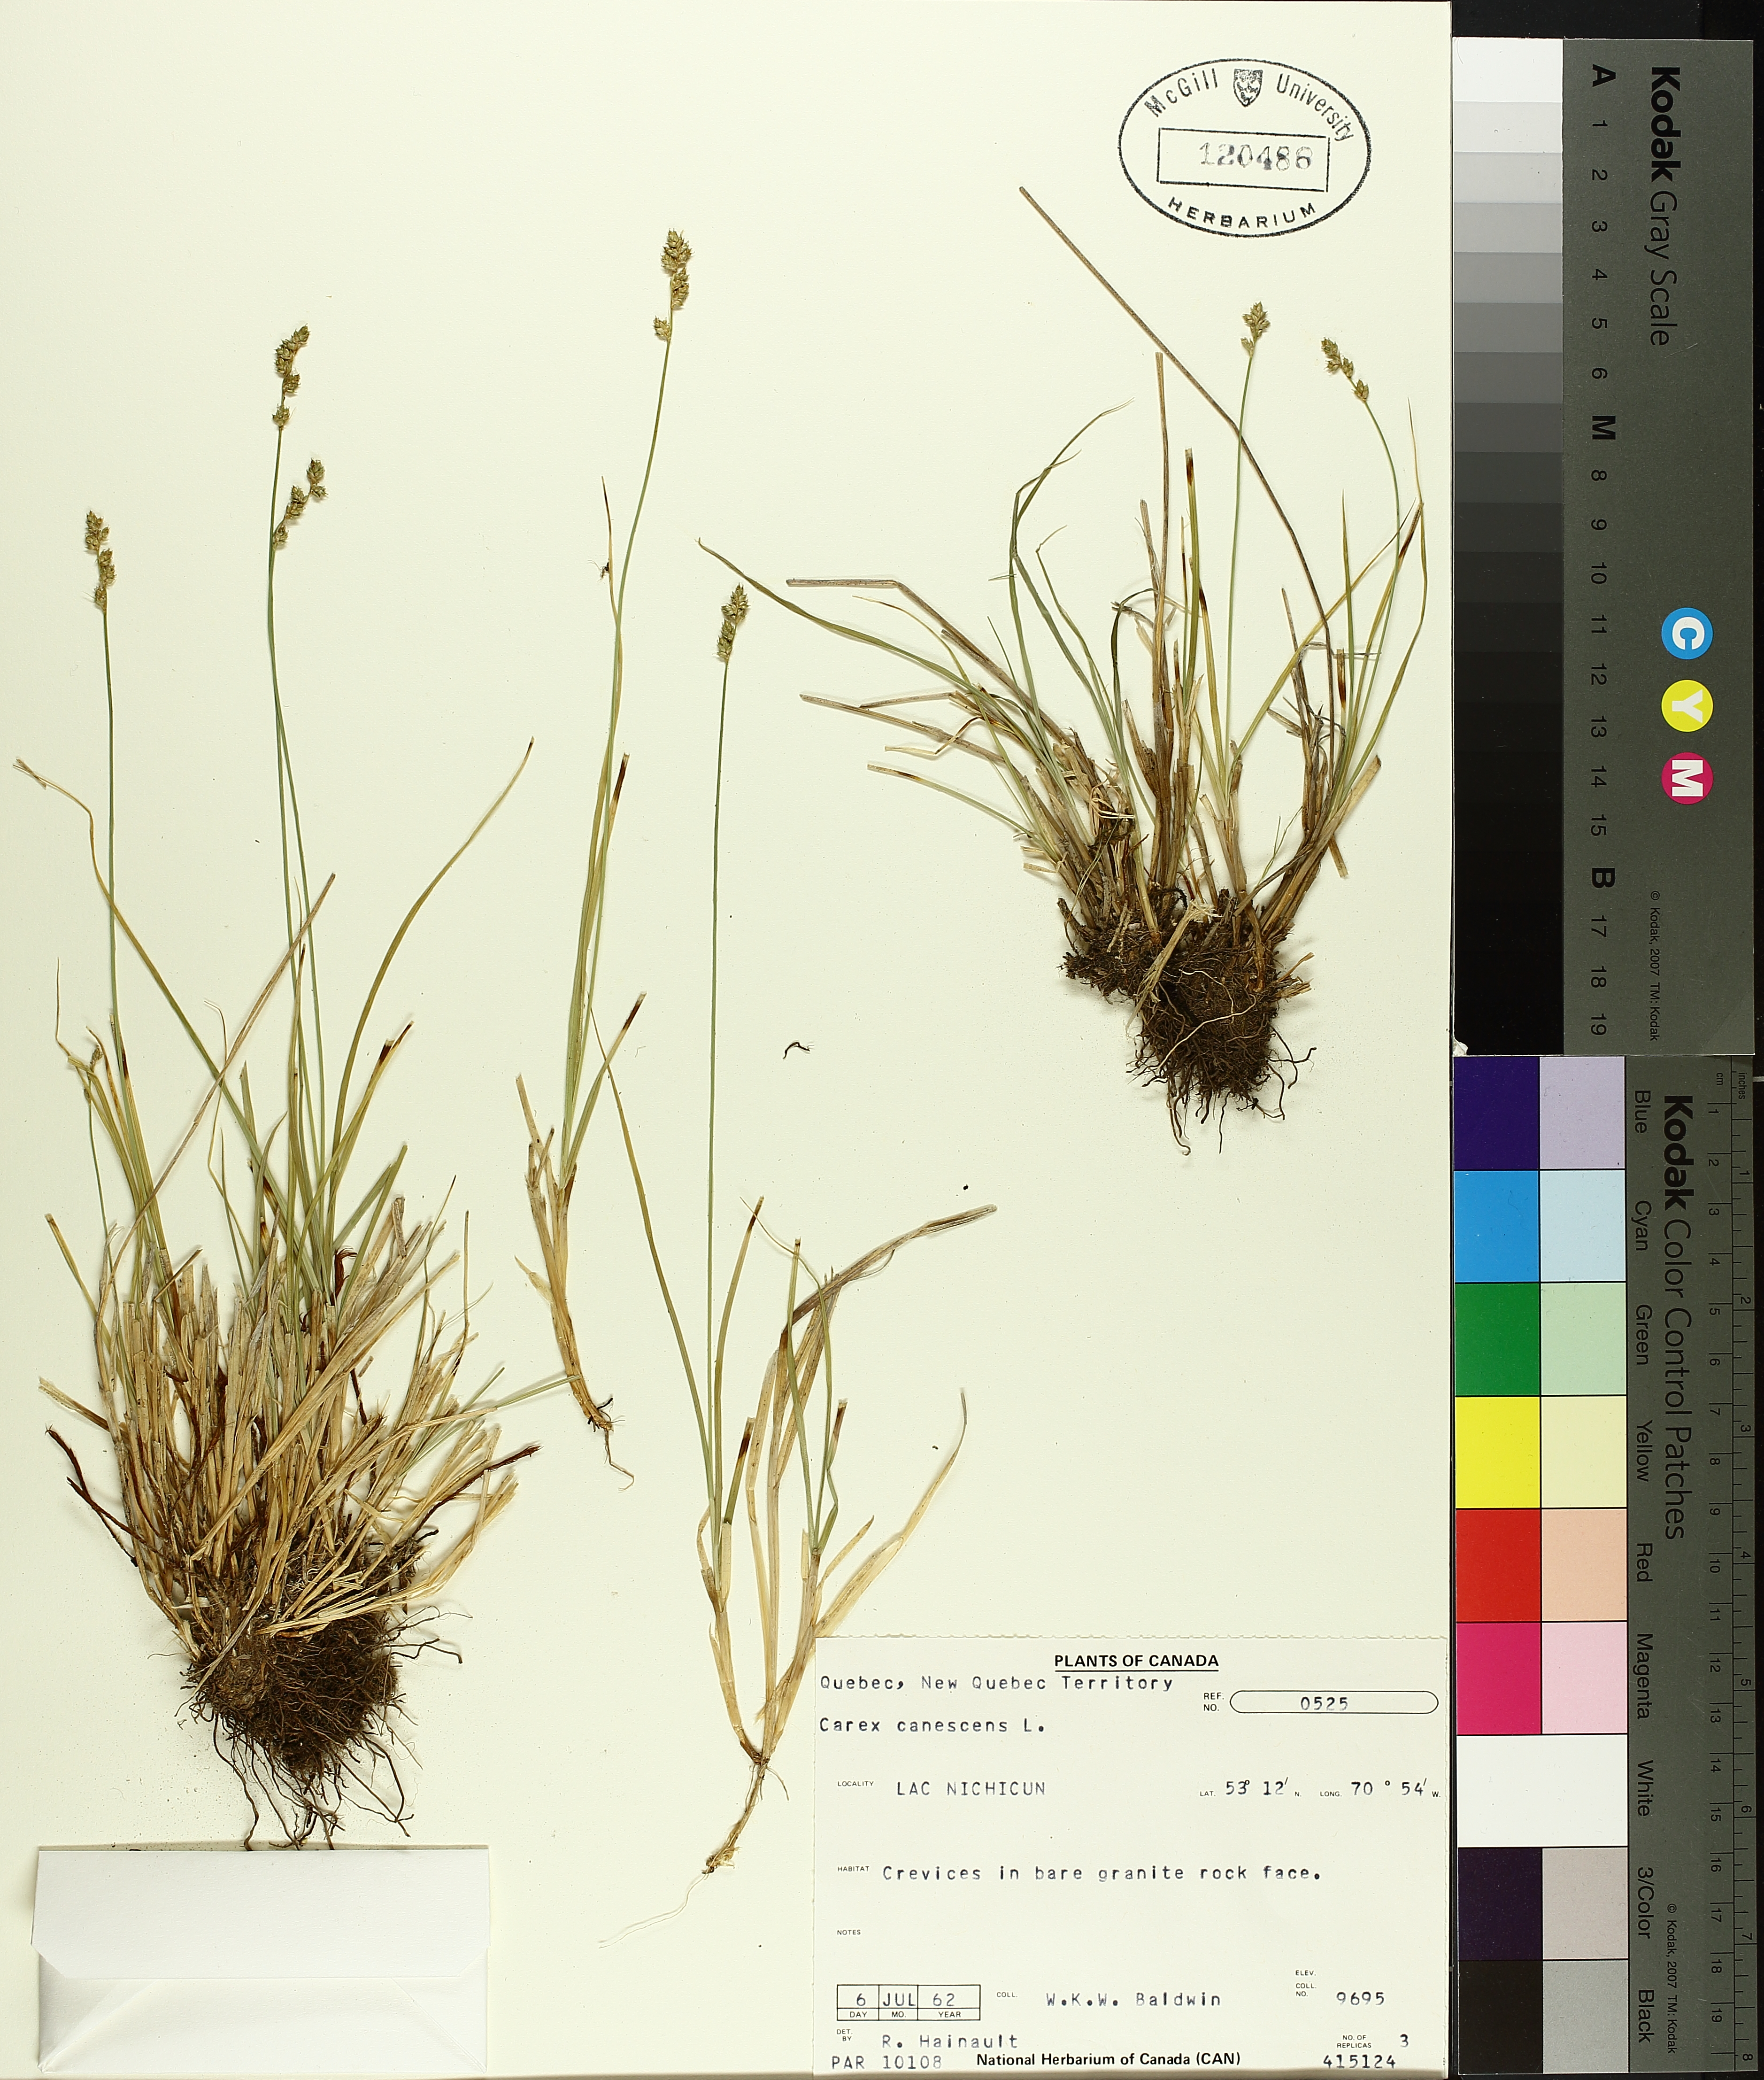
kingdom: Plantae
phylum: Tracheophyta
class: Liliopsida
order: Poales
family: Cyperaceae
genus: Carex
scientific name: Carex canescens
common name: White sedge
